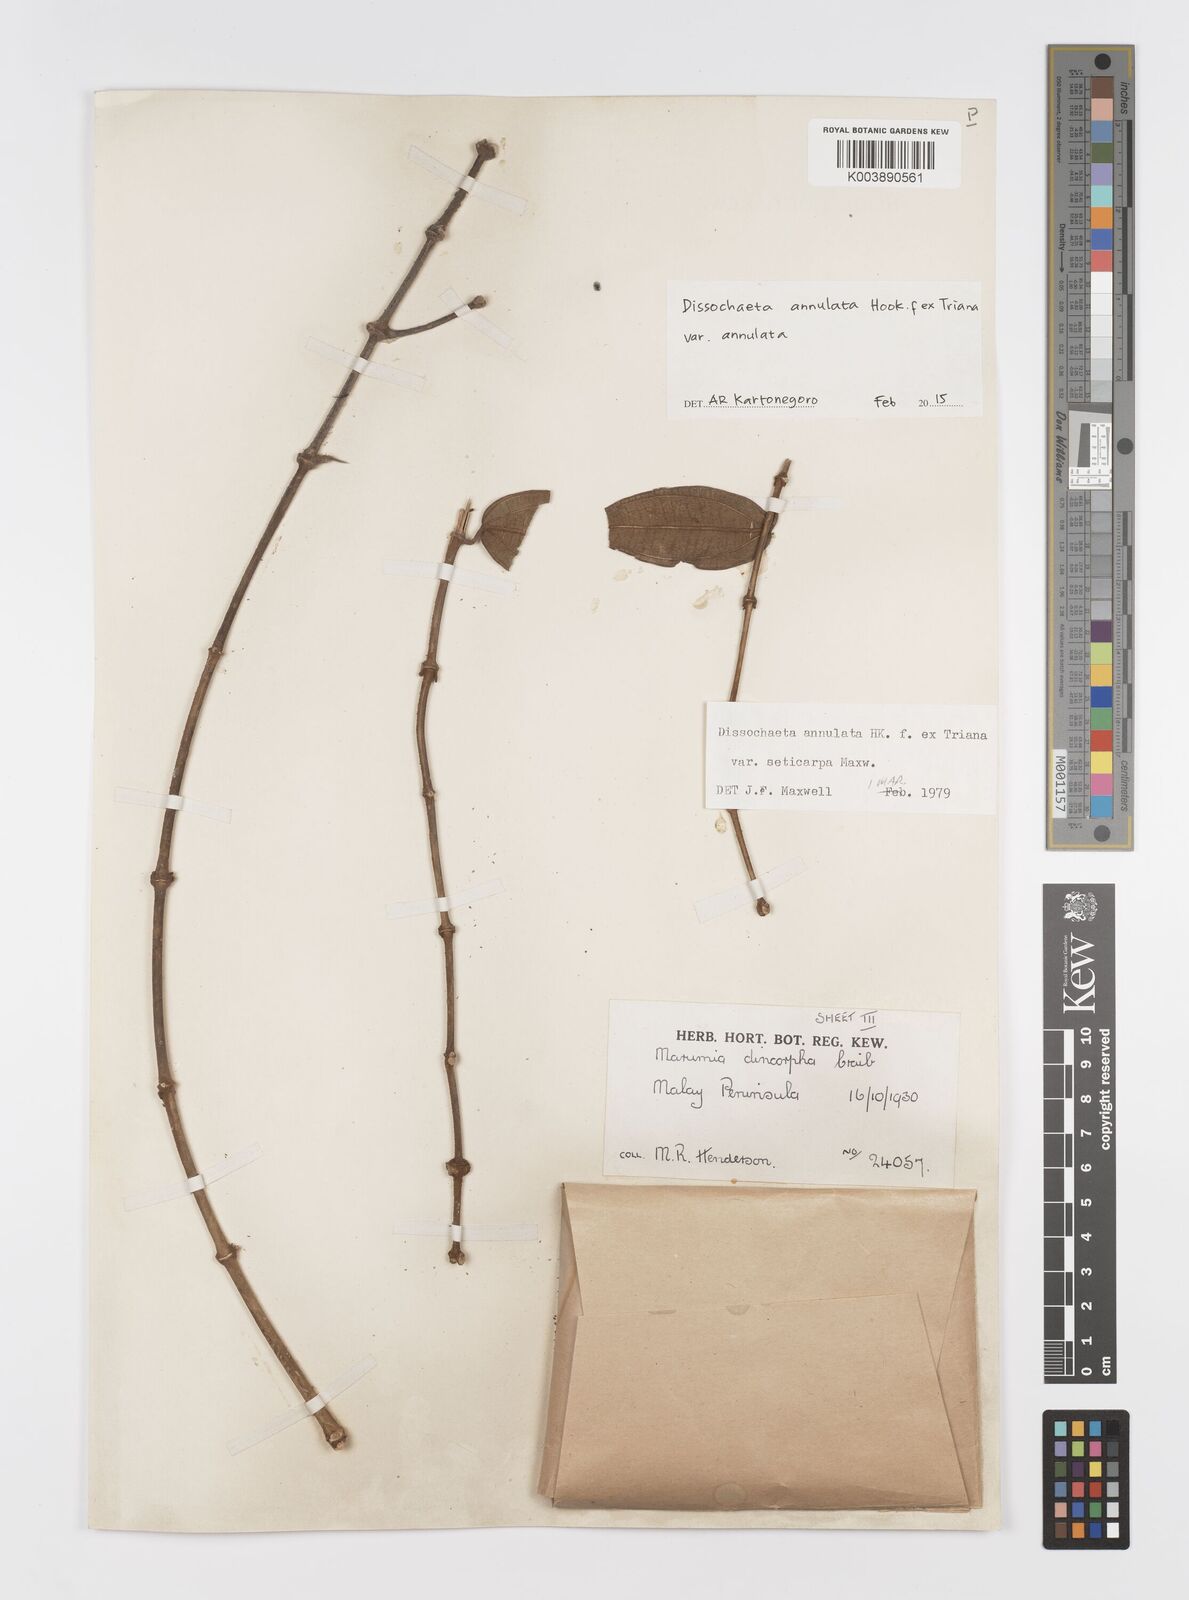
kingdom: Plantae
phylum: Tracheophyta
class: Magnoliopsida
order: Myrtales
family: Melastomataceae
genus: Dissochaeta
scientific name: Dissochaeta annulata
